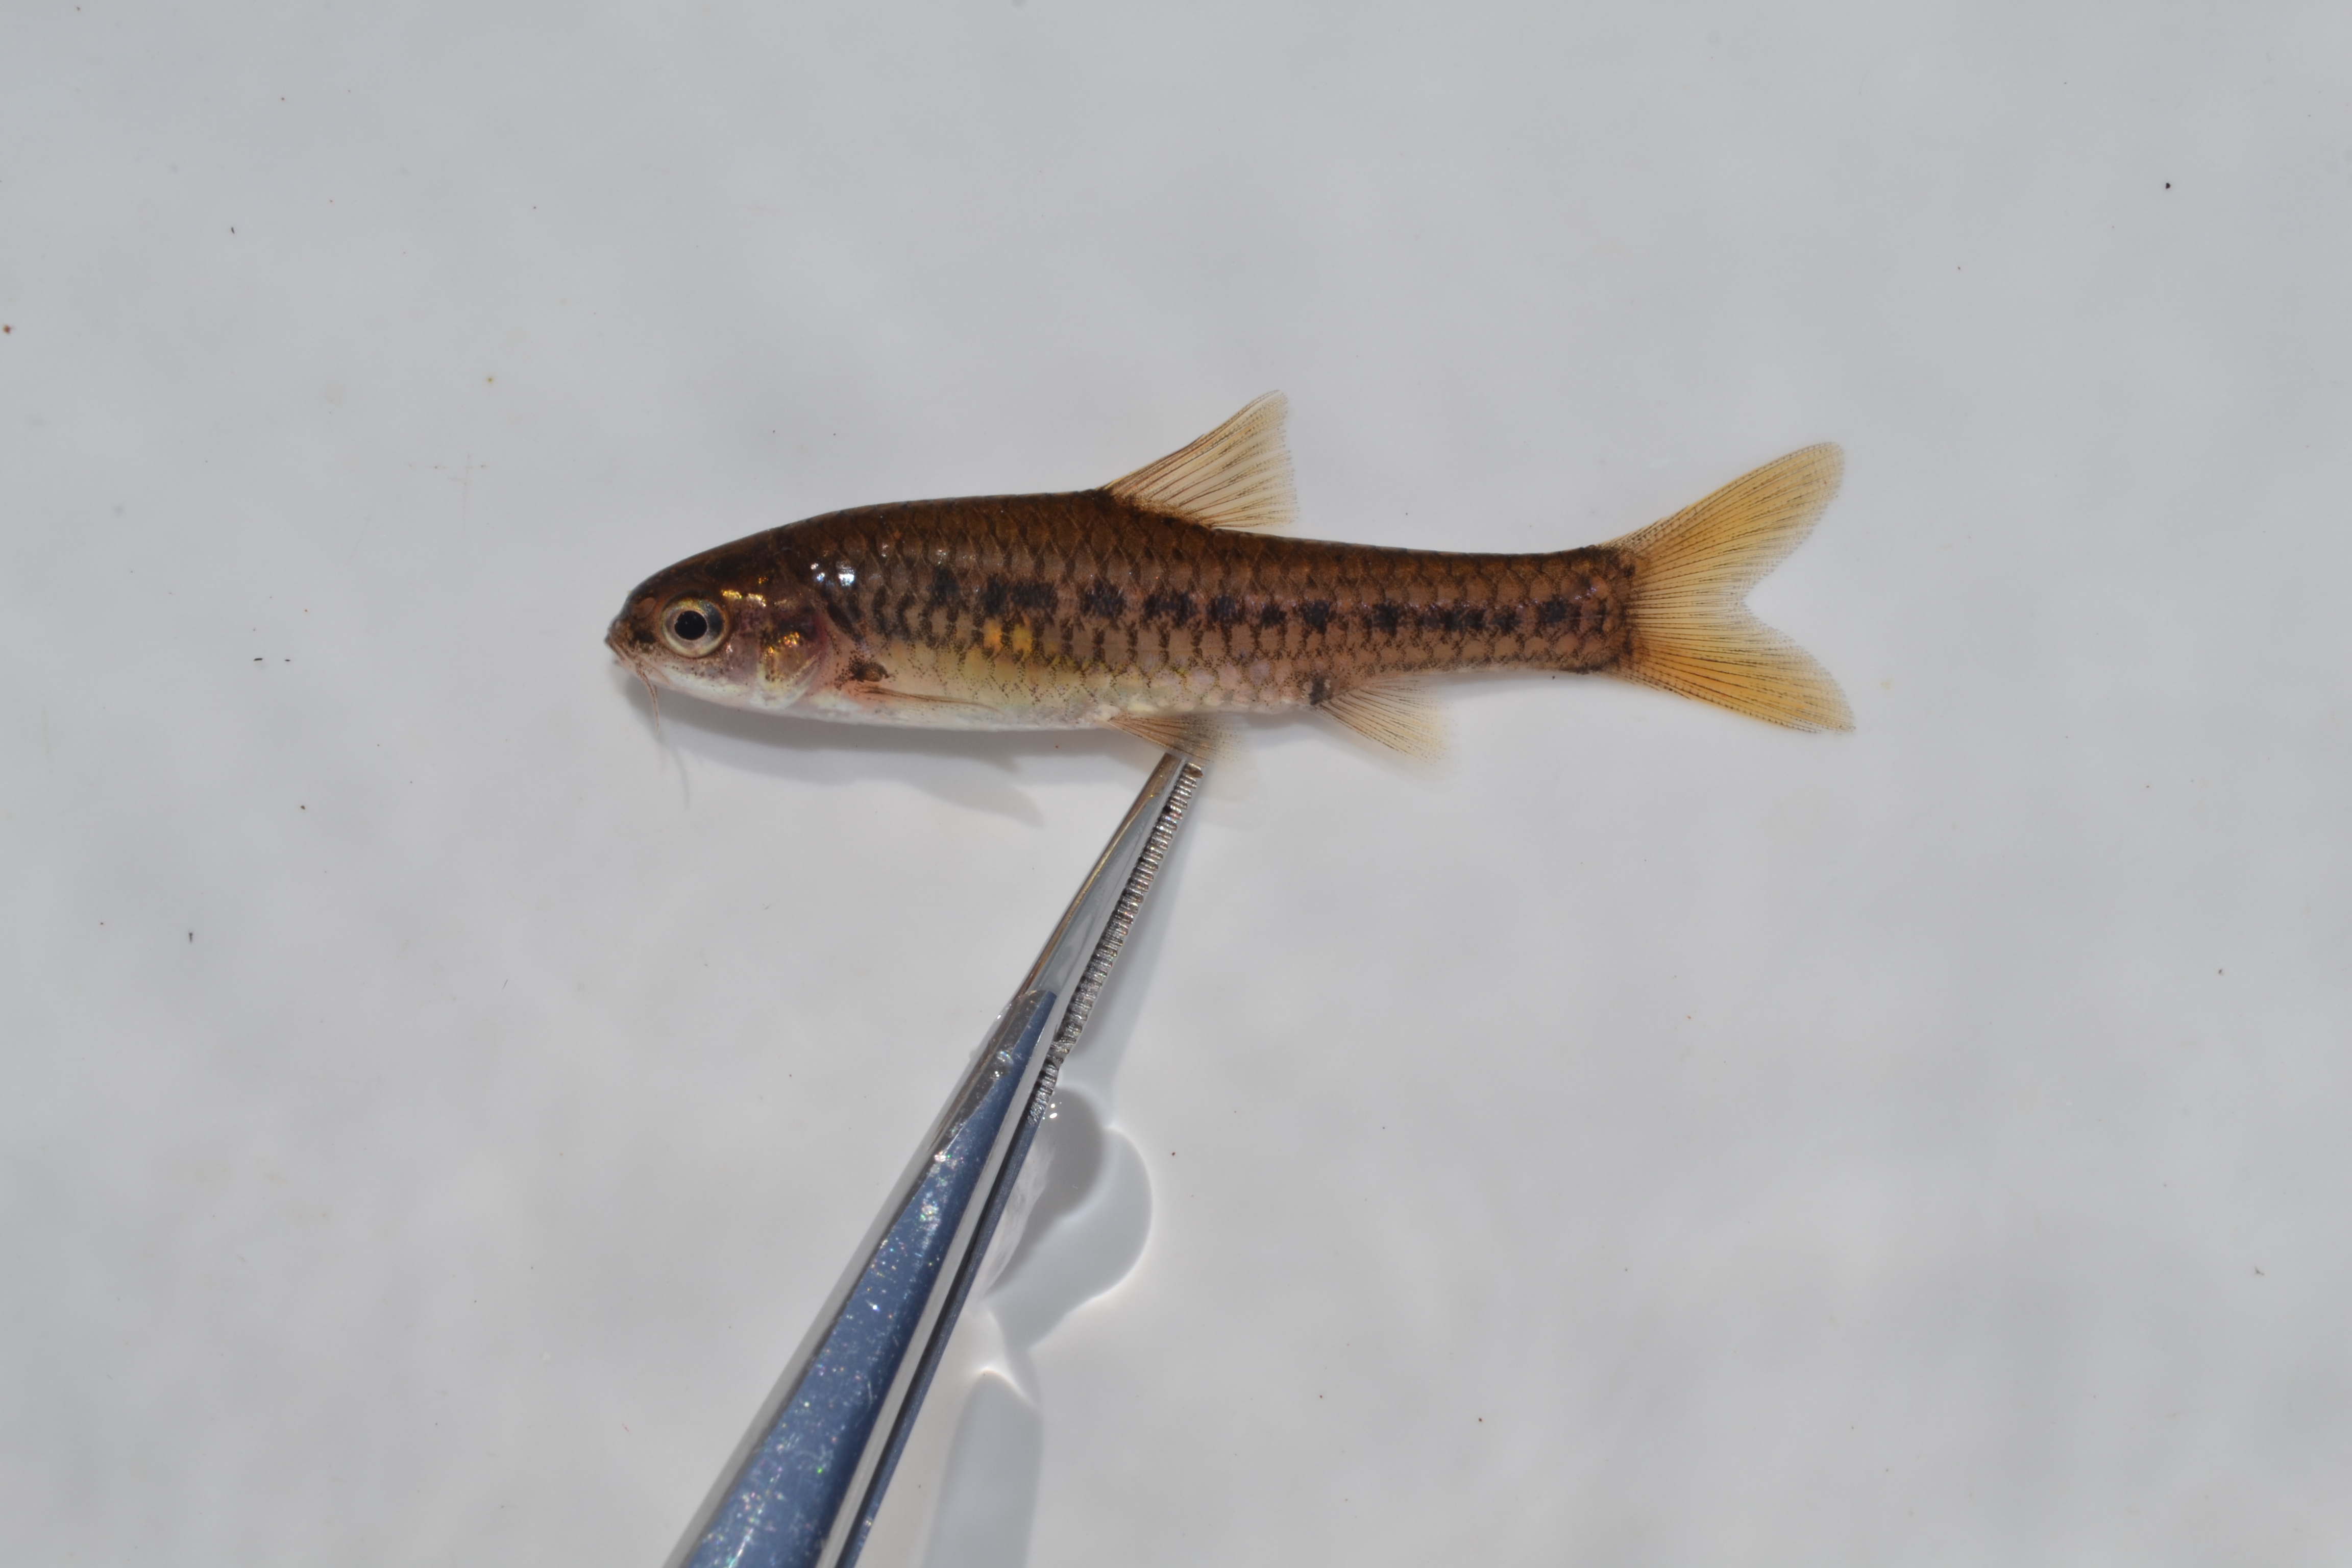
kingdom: Animalia
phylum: Chordata
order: Cypriniformes
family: Cyprinidae
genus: Enteromius
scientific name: Enteromius neefi
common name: Sidespot barb
